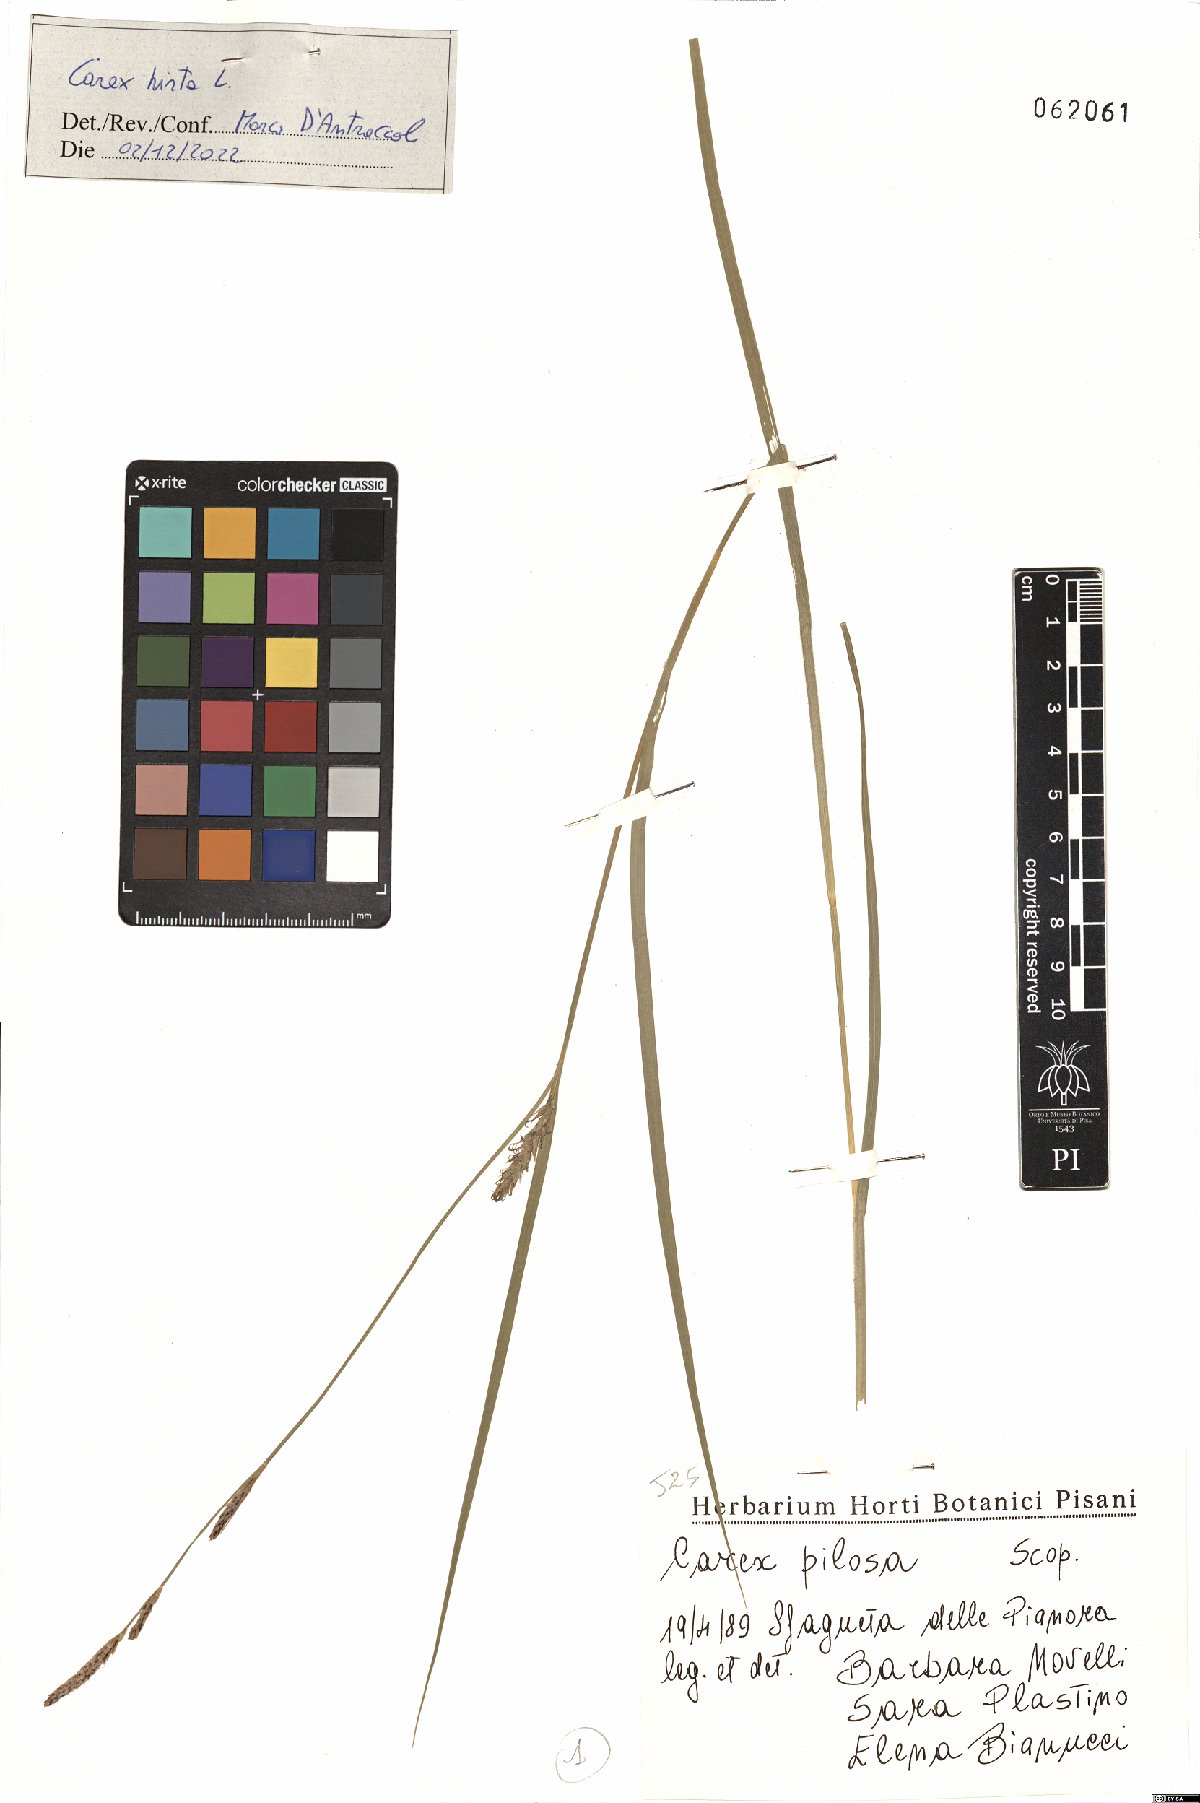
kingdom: Plantae
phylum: Tracheophyta
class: Liliopsida
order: Poales
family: Cyperaceae
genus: Carex
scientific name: Carex hirta
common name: Hairy sedge
